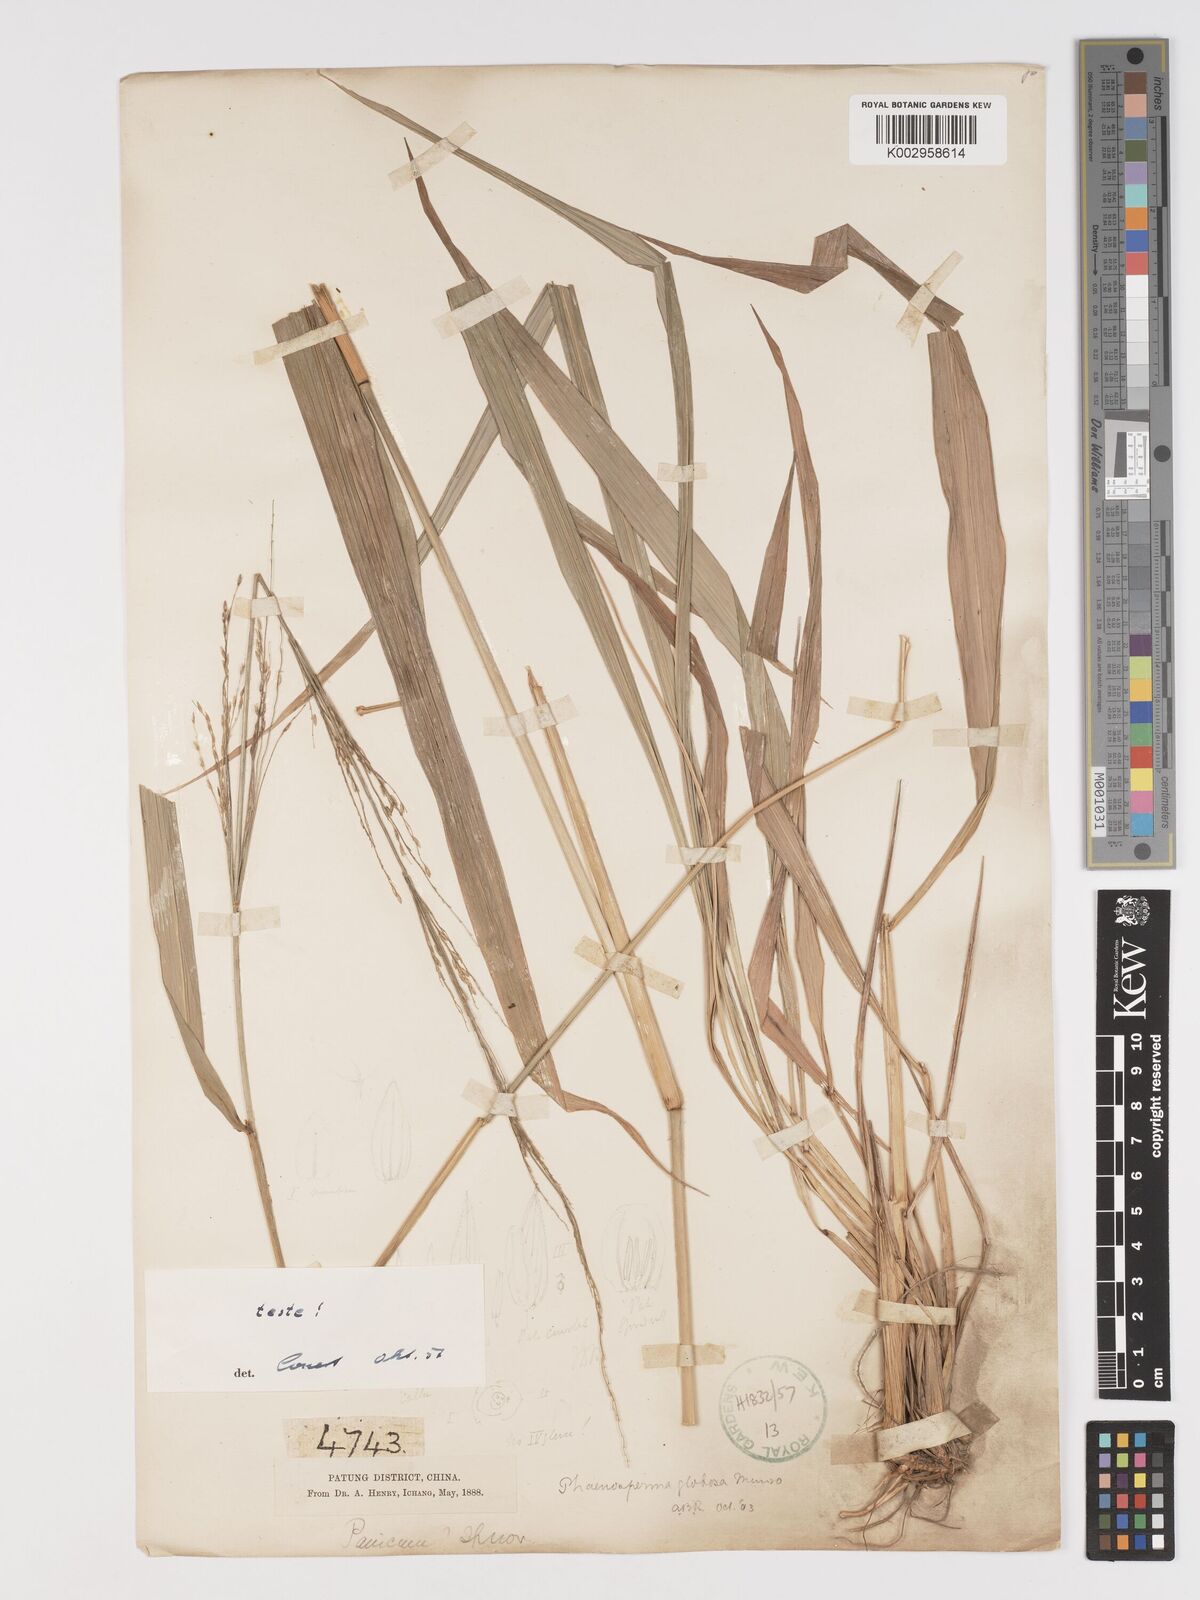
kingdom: Plantae
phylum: Tracheophyta
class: Liliopsida
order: Poales
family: Poaceae
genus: Phaenosperma
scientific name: Phaenosperma globosum
